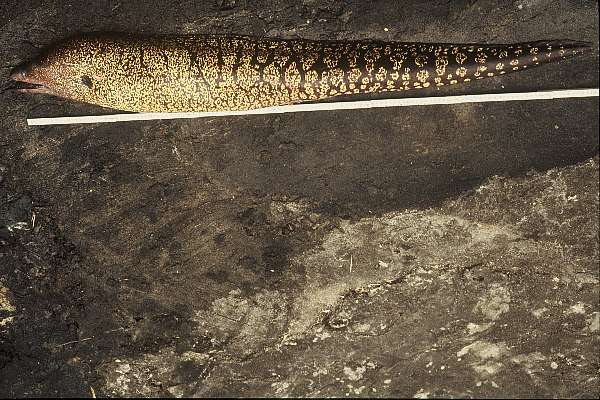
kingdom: Animalia
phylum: Chordata
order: Anguilliformes
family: Muraenidae
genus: Muraena
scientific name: Muraena helena
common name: Mediterranean moray
